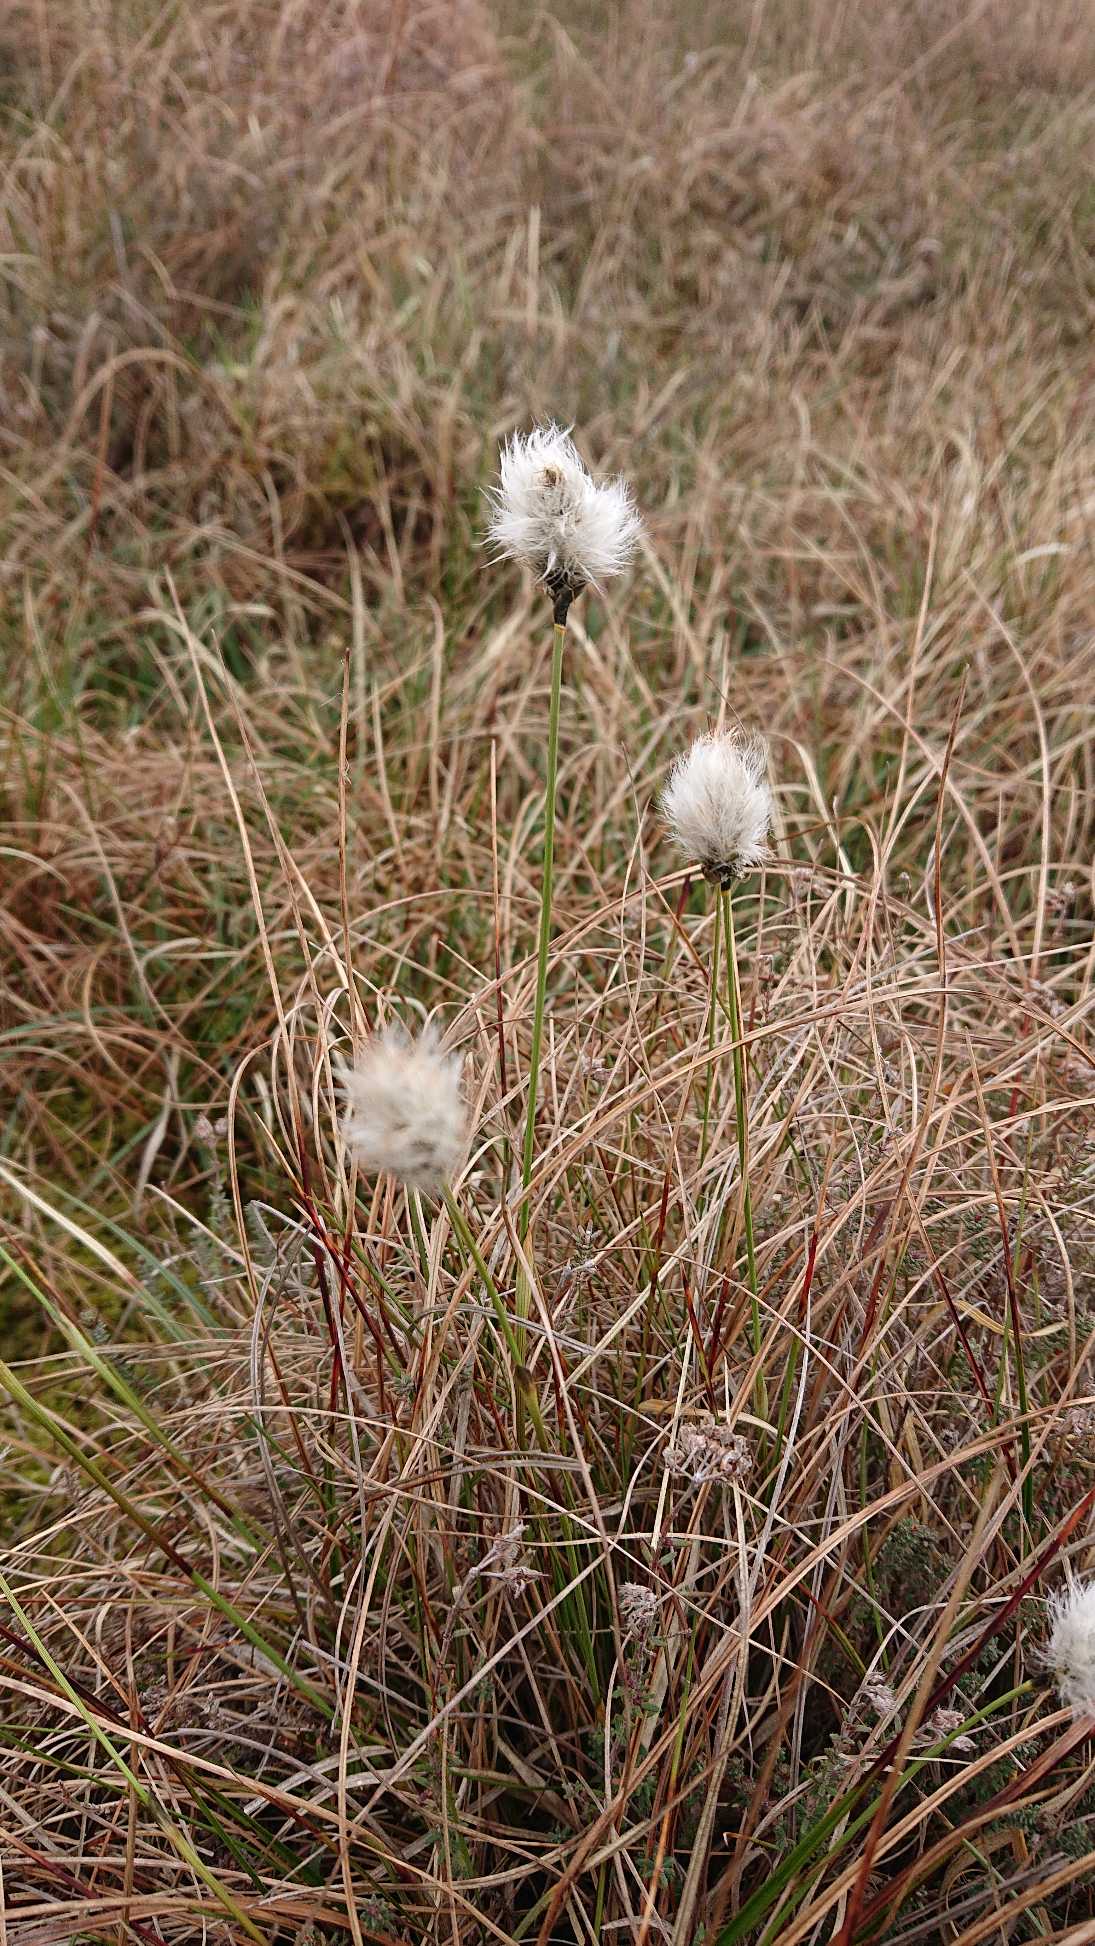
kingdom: Plantae
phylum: Tracheophyta
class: Liliopsida
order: Poales
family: Cyperaceae
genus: Eriophorum
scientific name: Eriophorum vaginatum
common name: Tue-kæruld
